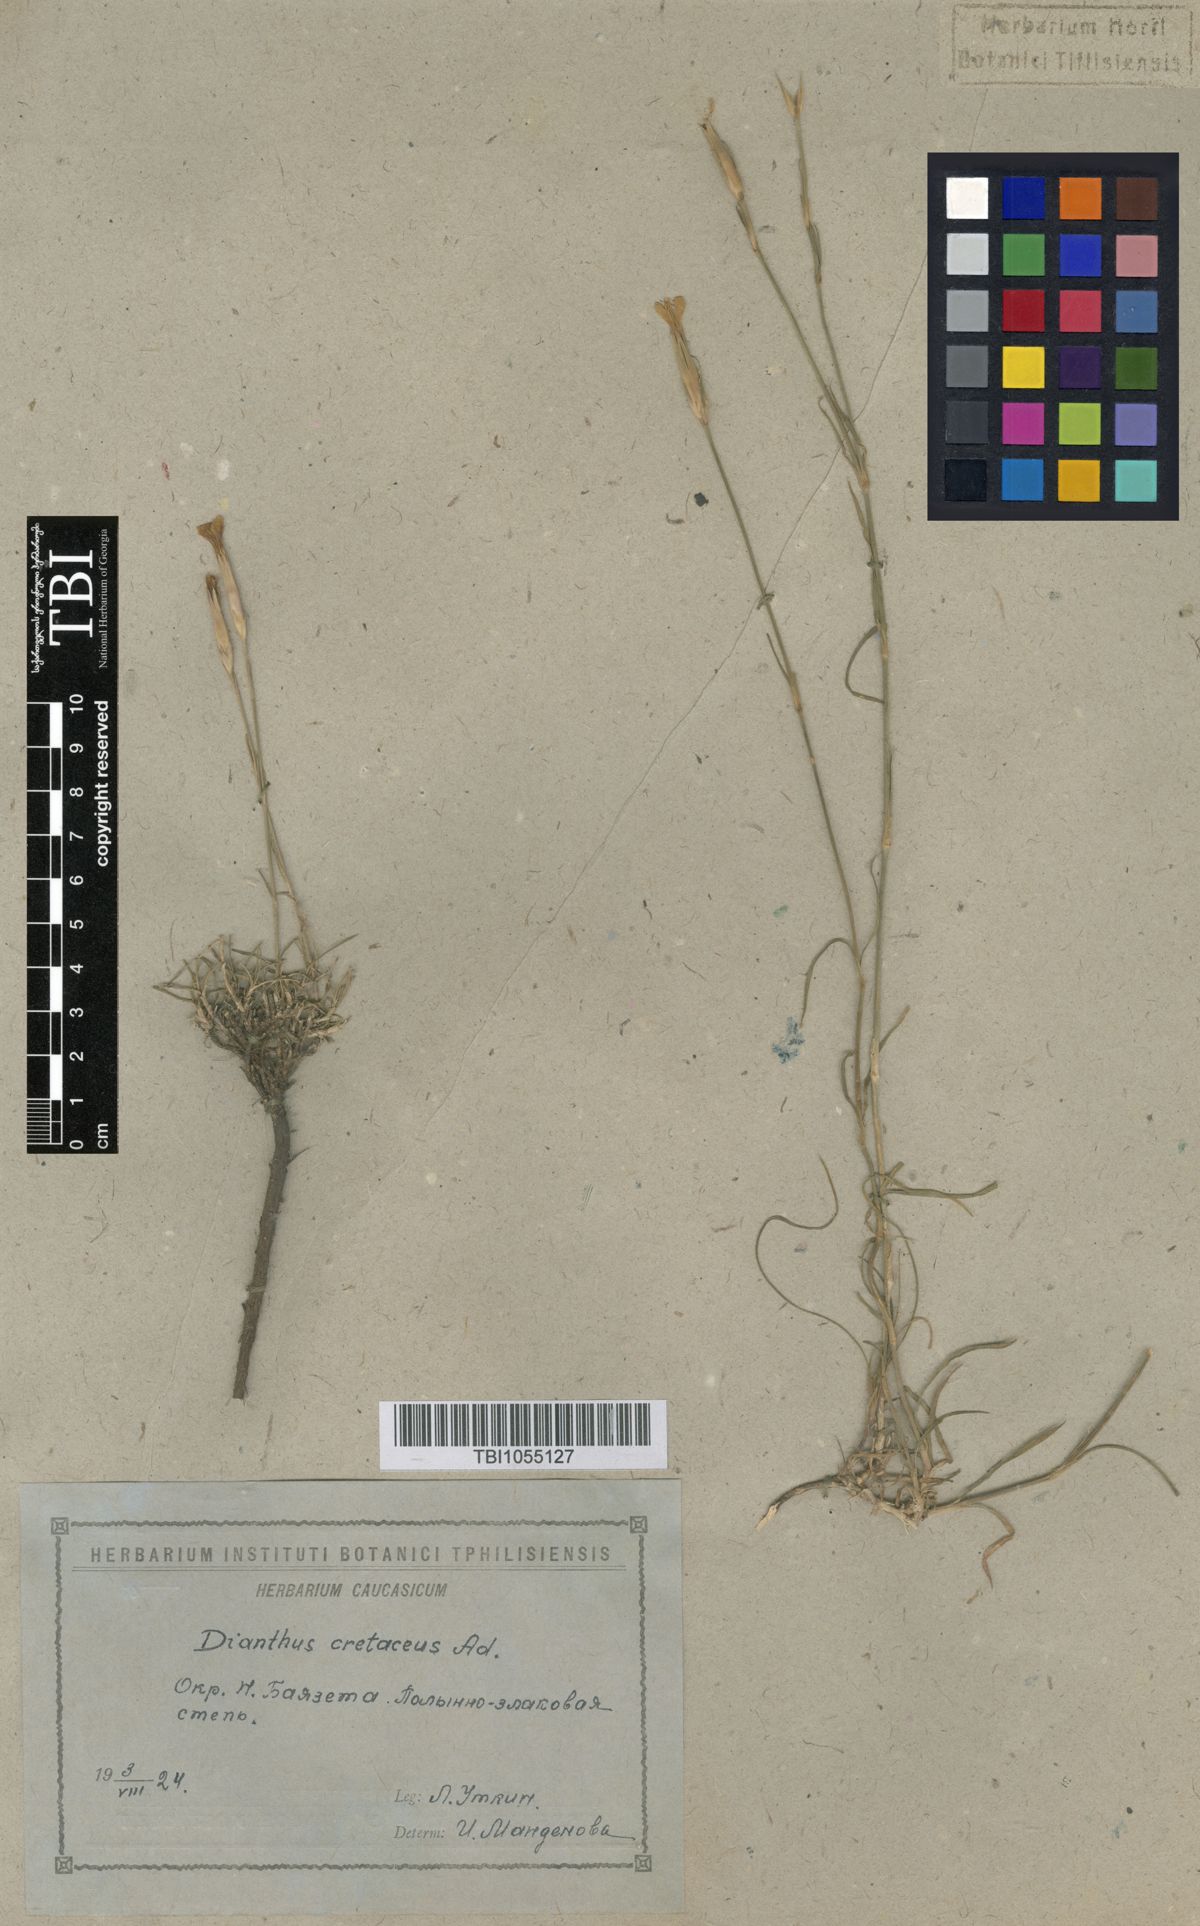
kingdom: Plantae
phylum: Tracheophyta
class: Magnoliopsida
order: Caryophyllales
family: Caryophyllaceae
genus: Dianthus
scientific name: Dianthus cretaceus
